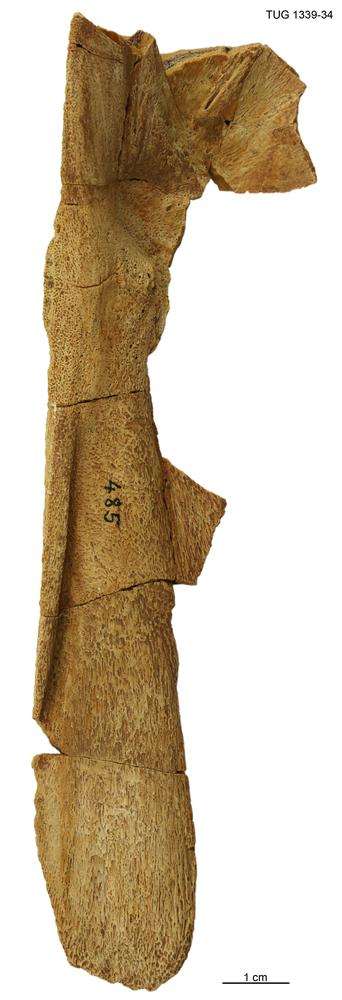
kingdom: Animalia
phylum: Chordata
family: Homostiidae
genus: Homostius
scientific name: Homostius
